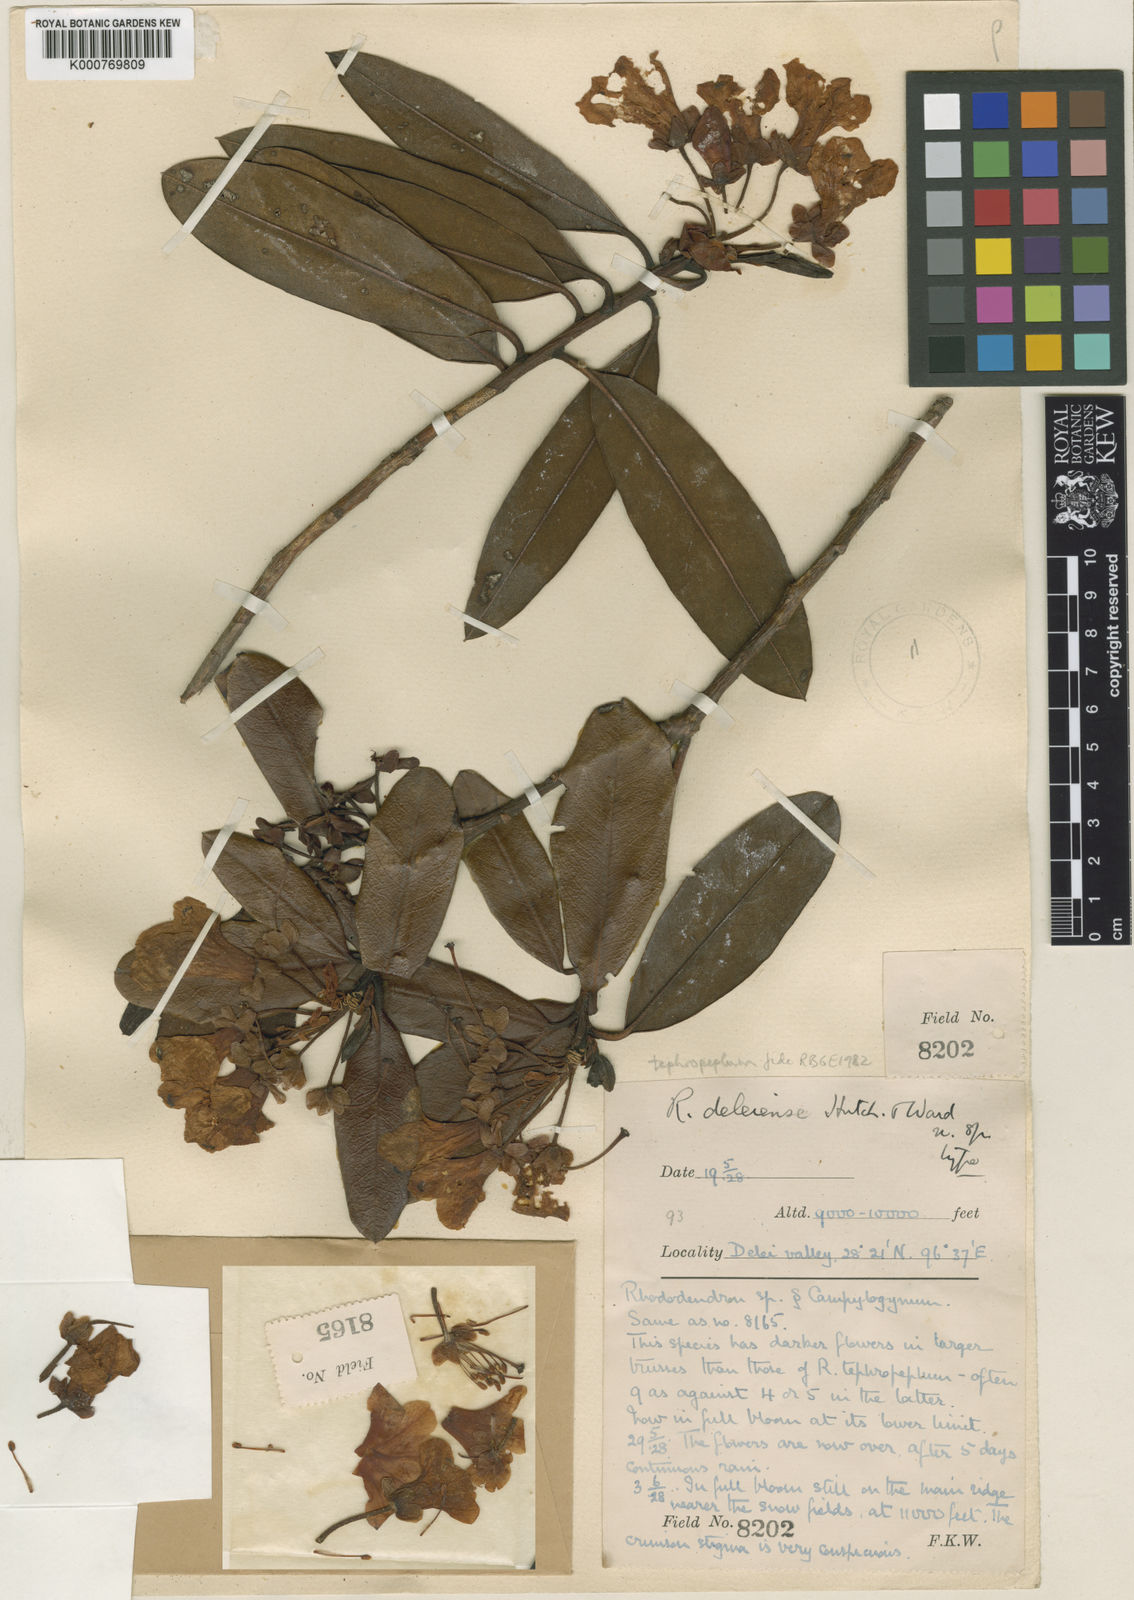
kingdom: Plantae
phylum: Tracheophyta
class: Magnoliopsida
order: Ericales
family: Ericaceae
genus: Rhododendron
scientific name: Rhododendron tephropeplum
